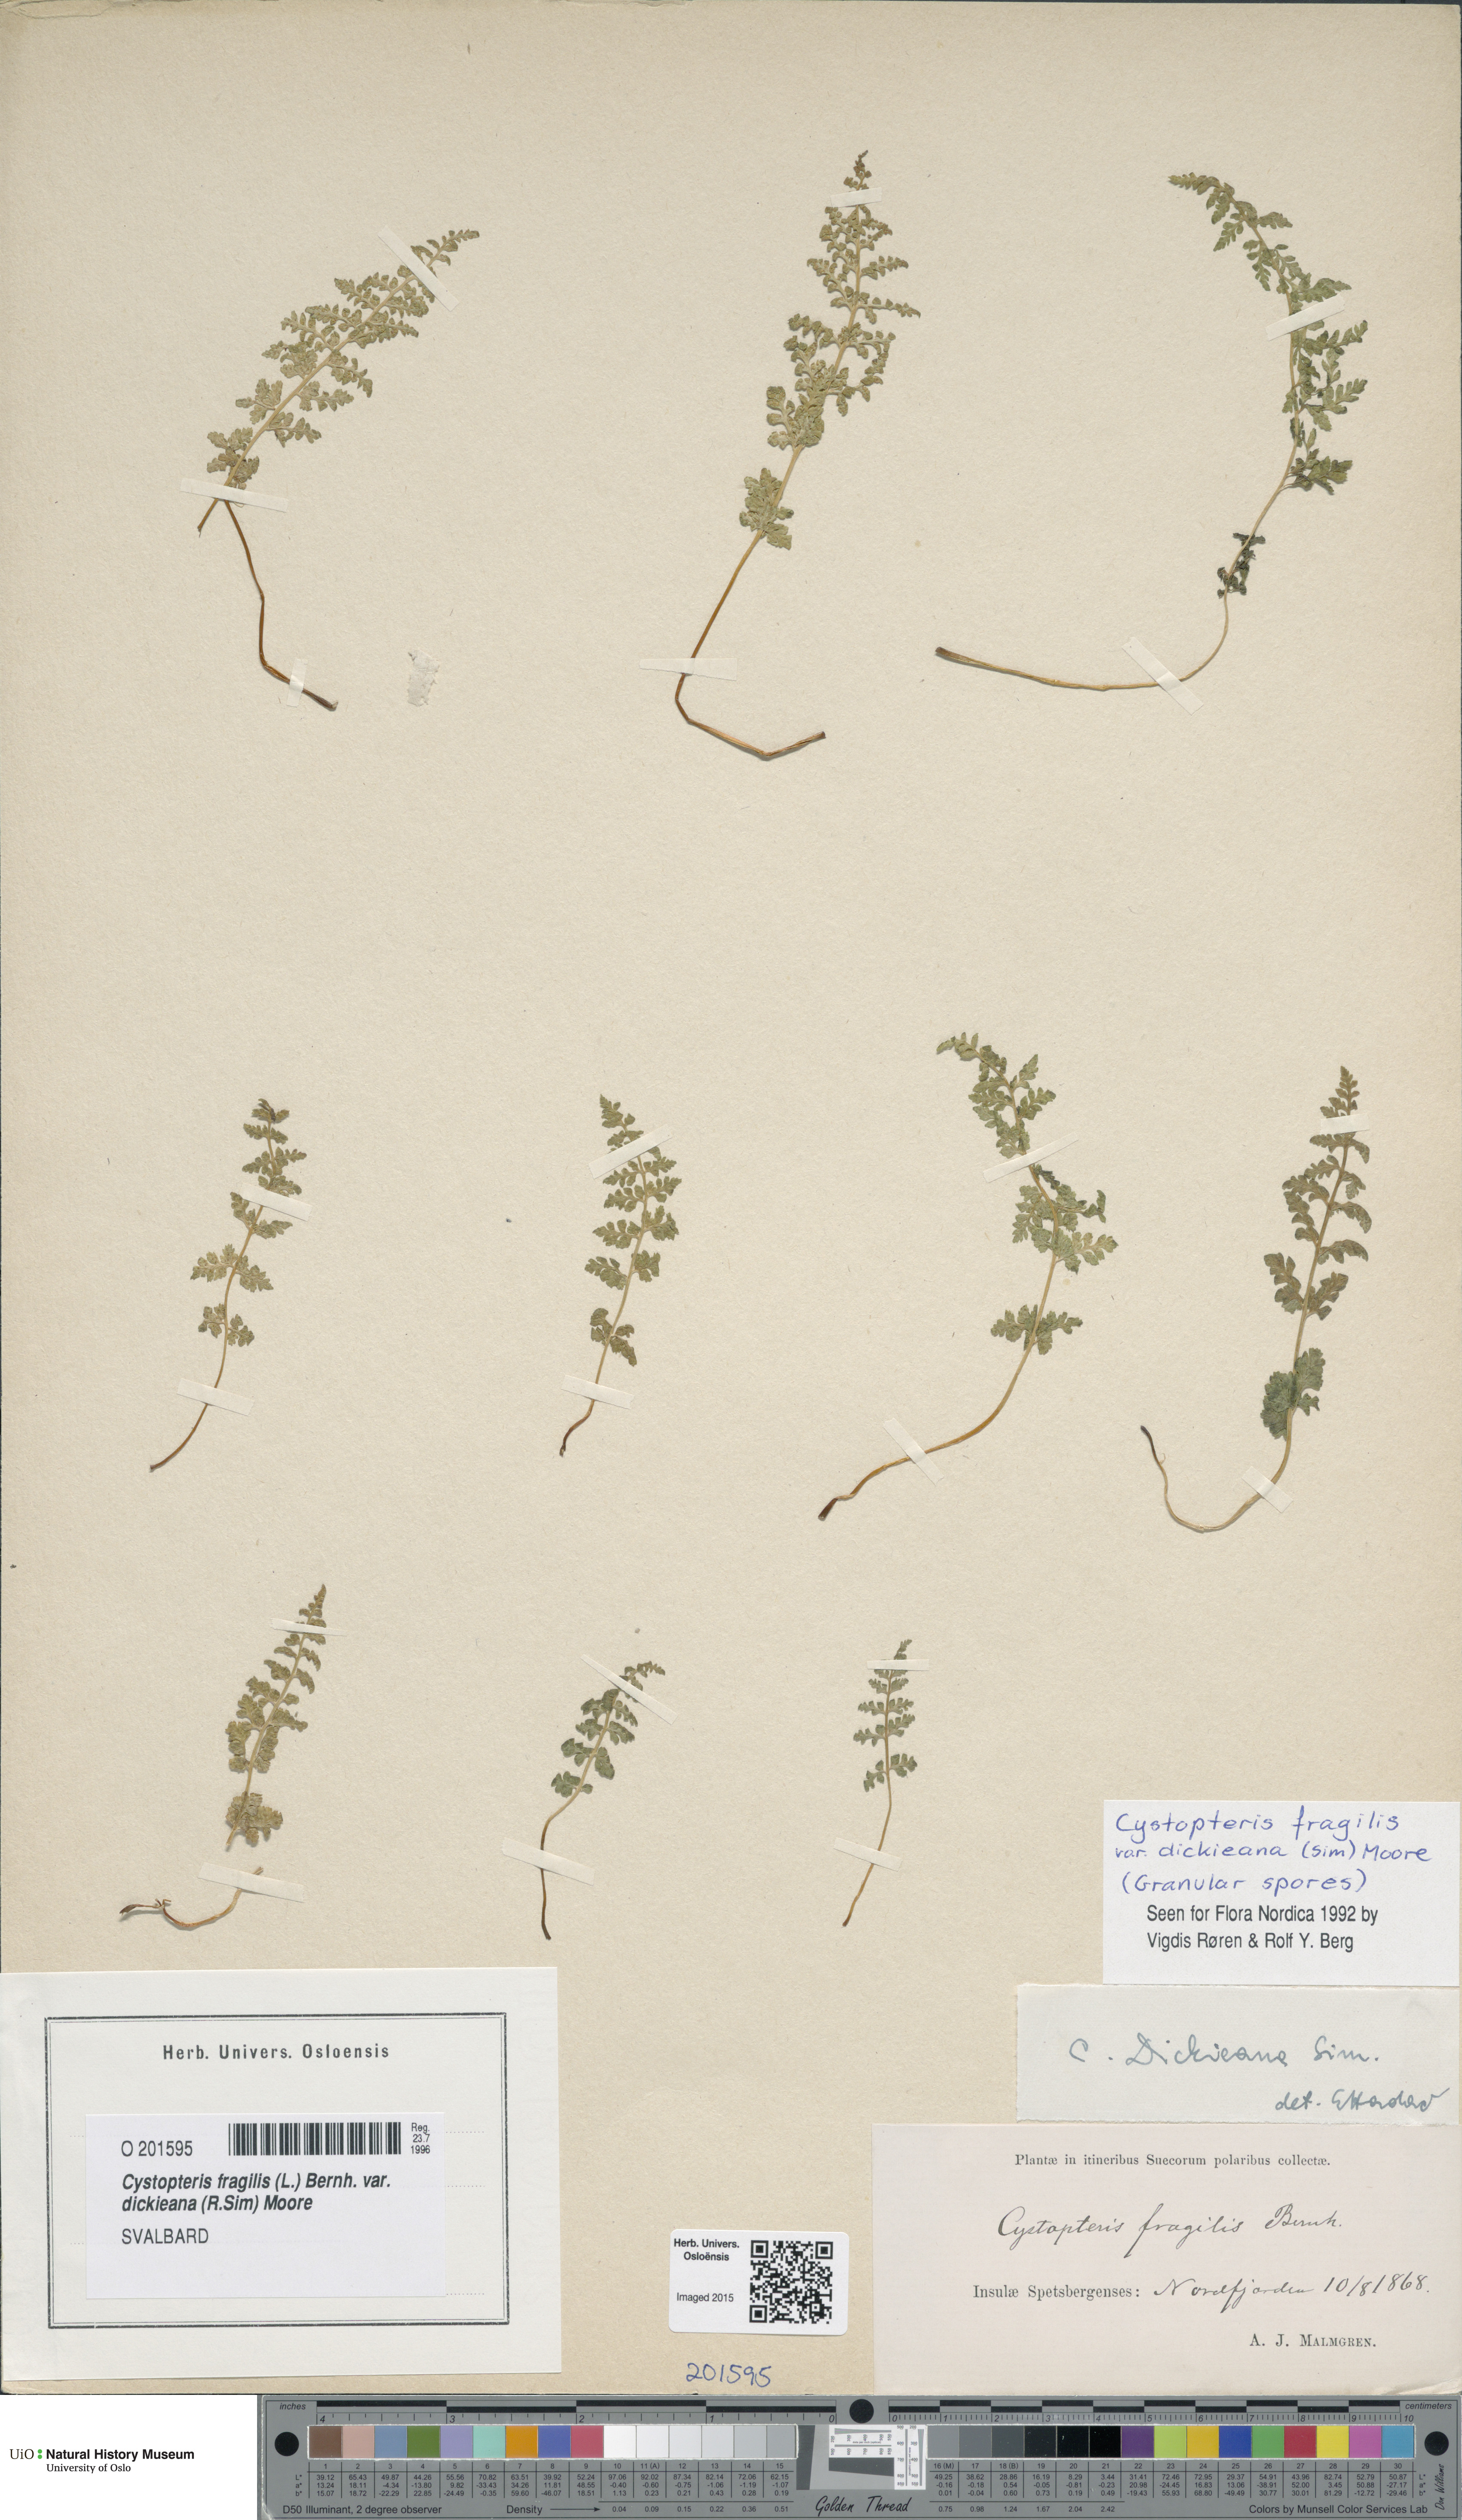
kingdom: Plantae
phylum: Tracheophyta
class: Polypodiopsida
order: Polypodiales
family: Cystopteridaceae
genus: Cystopteris
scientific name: Cystopteris dickieana
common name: Dickie's bladder-fern
